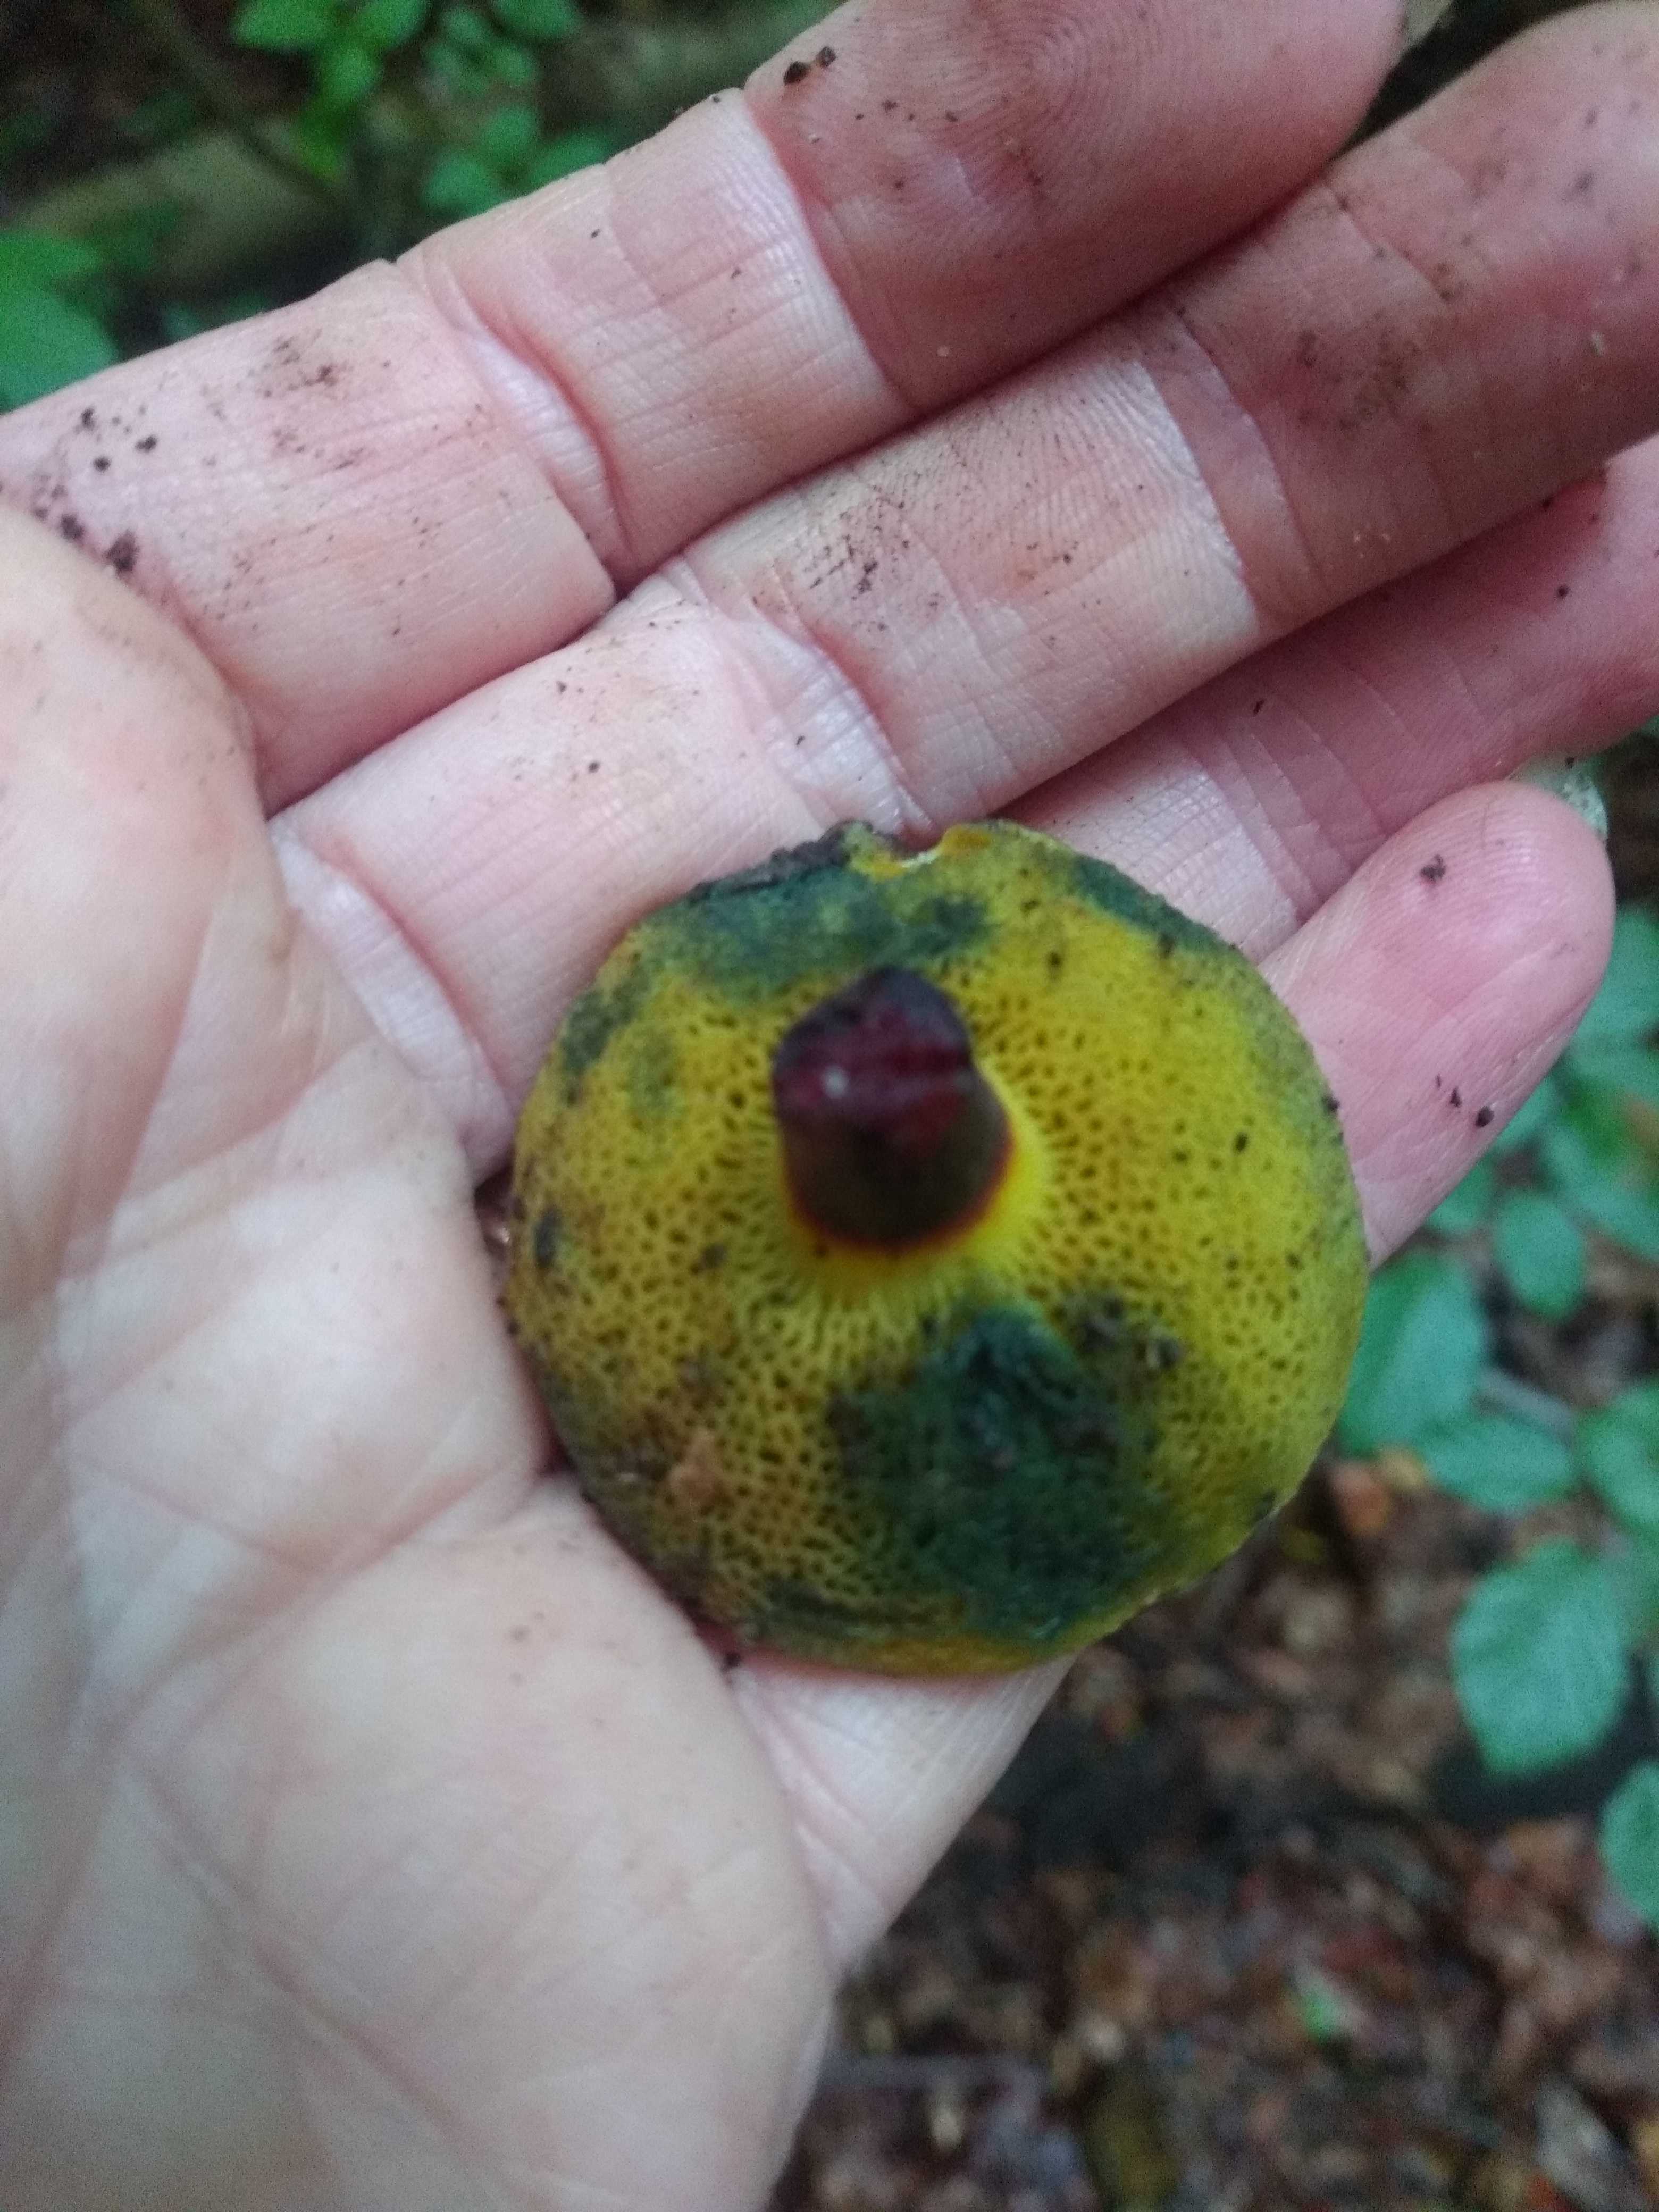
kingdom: Fungi
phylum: Basidiomycota
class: Agaricomycetes
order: Boletales
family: Boletaceae
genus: Xerocomellus
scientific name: Xerocomellus cisalpinus
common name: finsprukken rørhat
